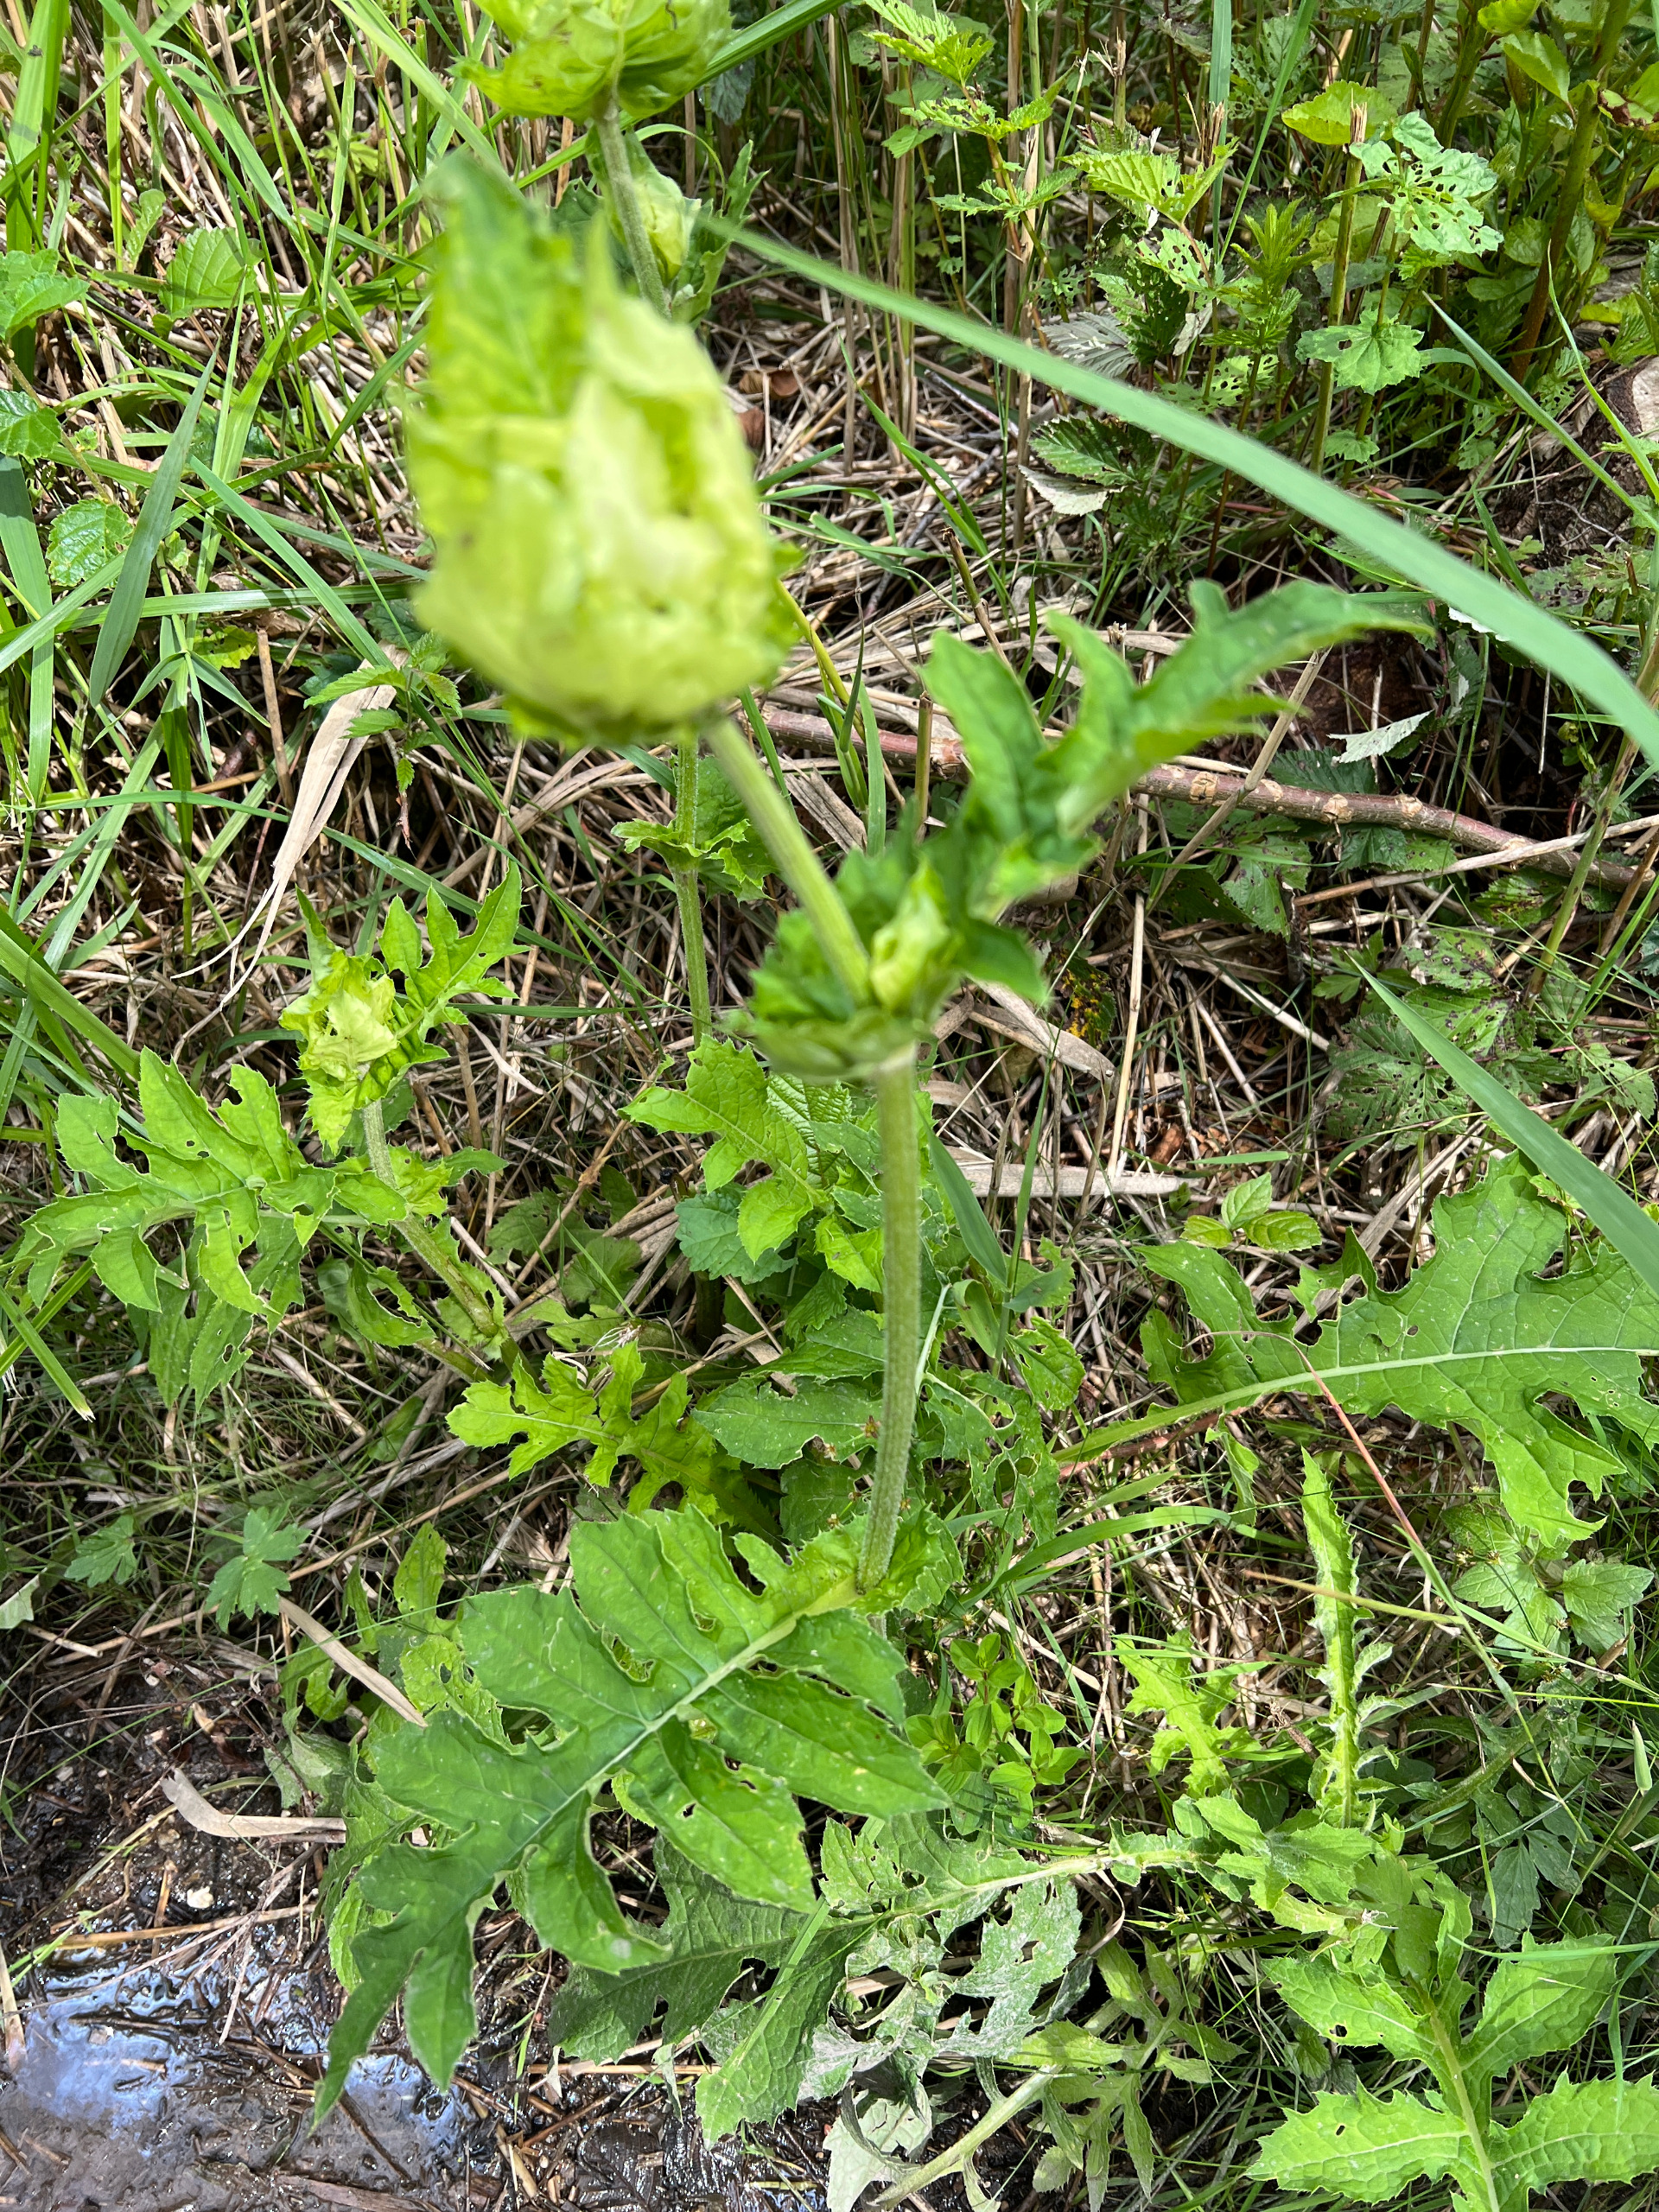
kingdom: Plantae
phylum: Tracheophyta
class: Magnoliopsida
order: Asterales
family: Asteraceae
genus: Cirsium
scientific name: Cirsium oleraceum
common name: Kål-tidsel
